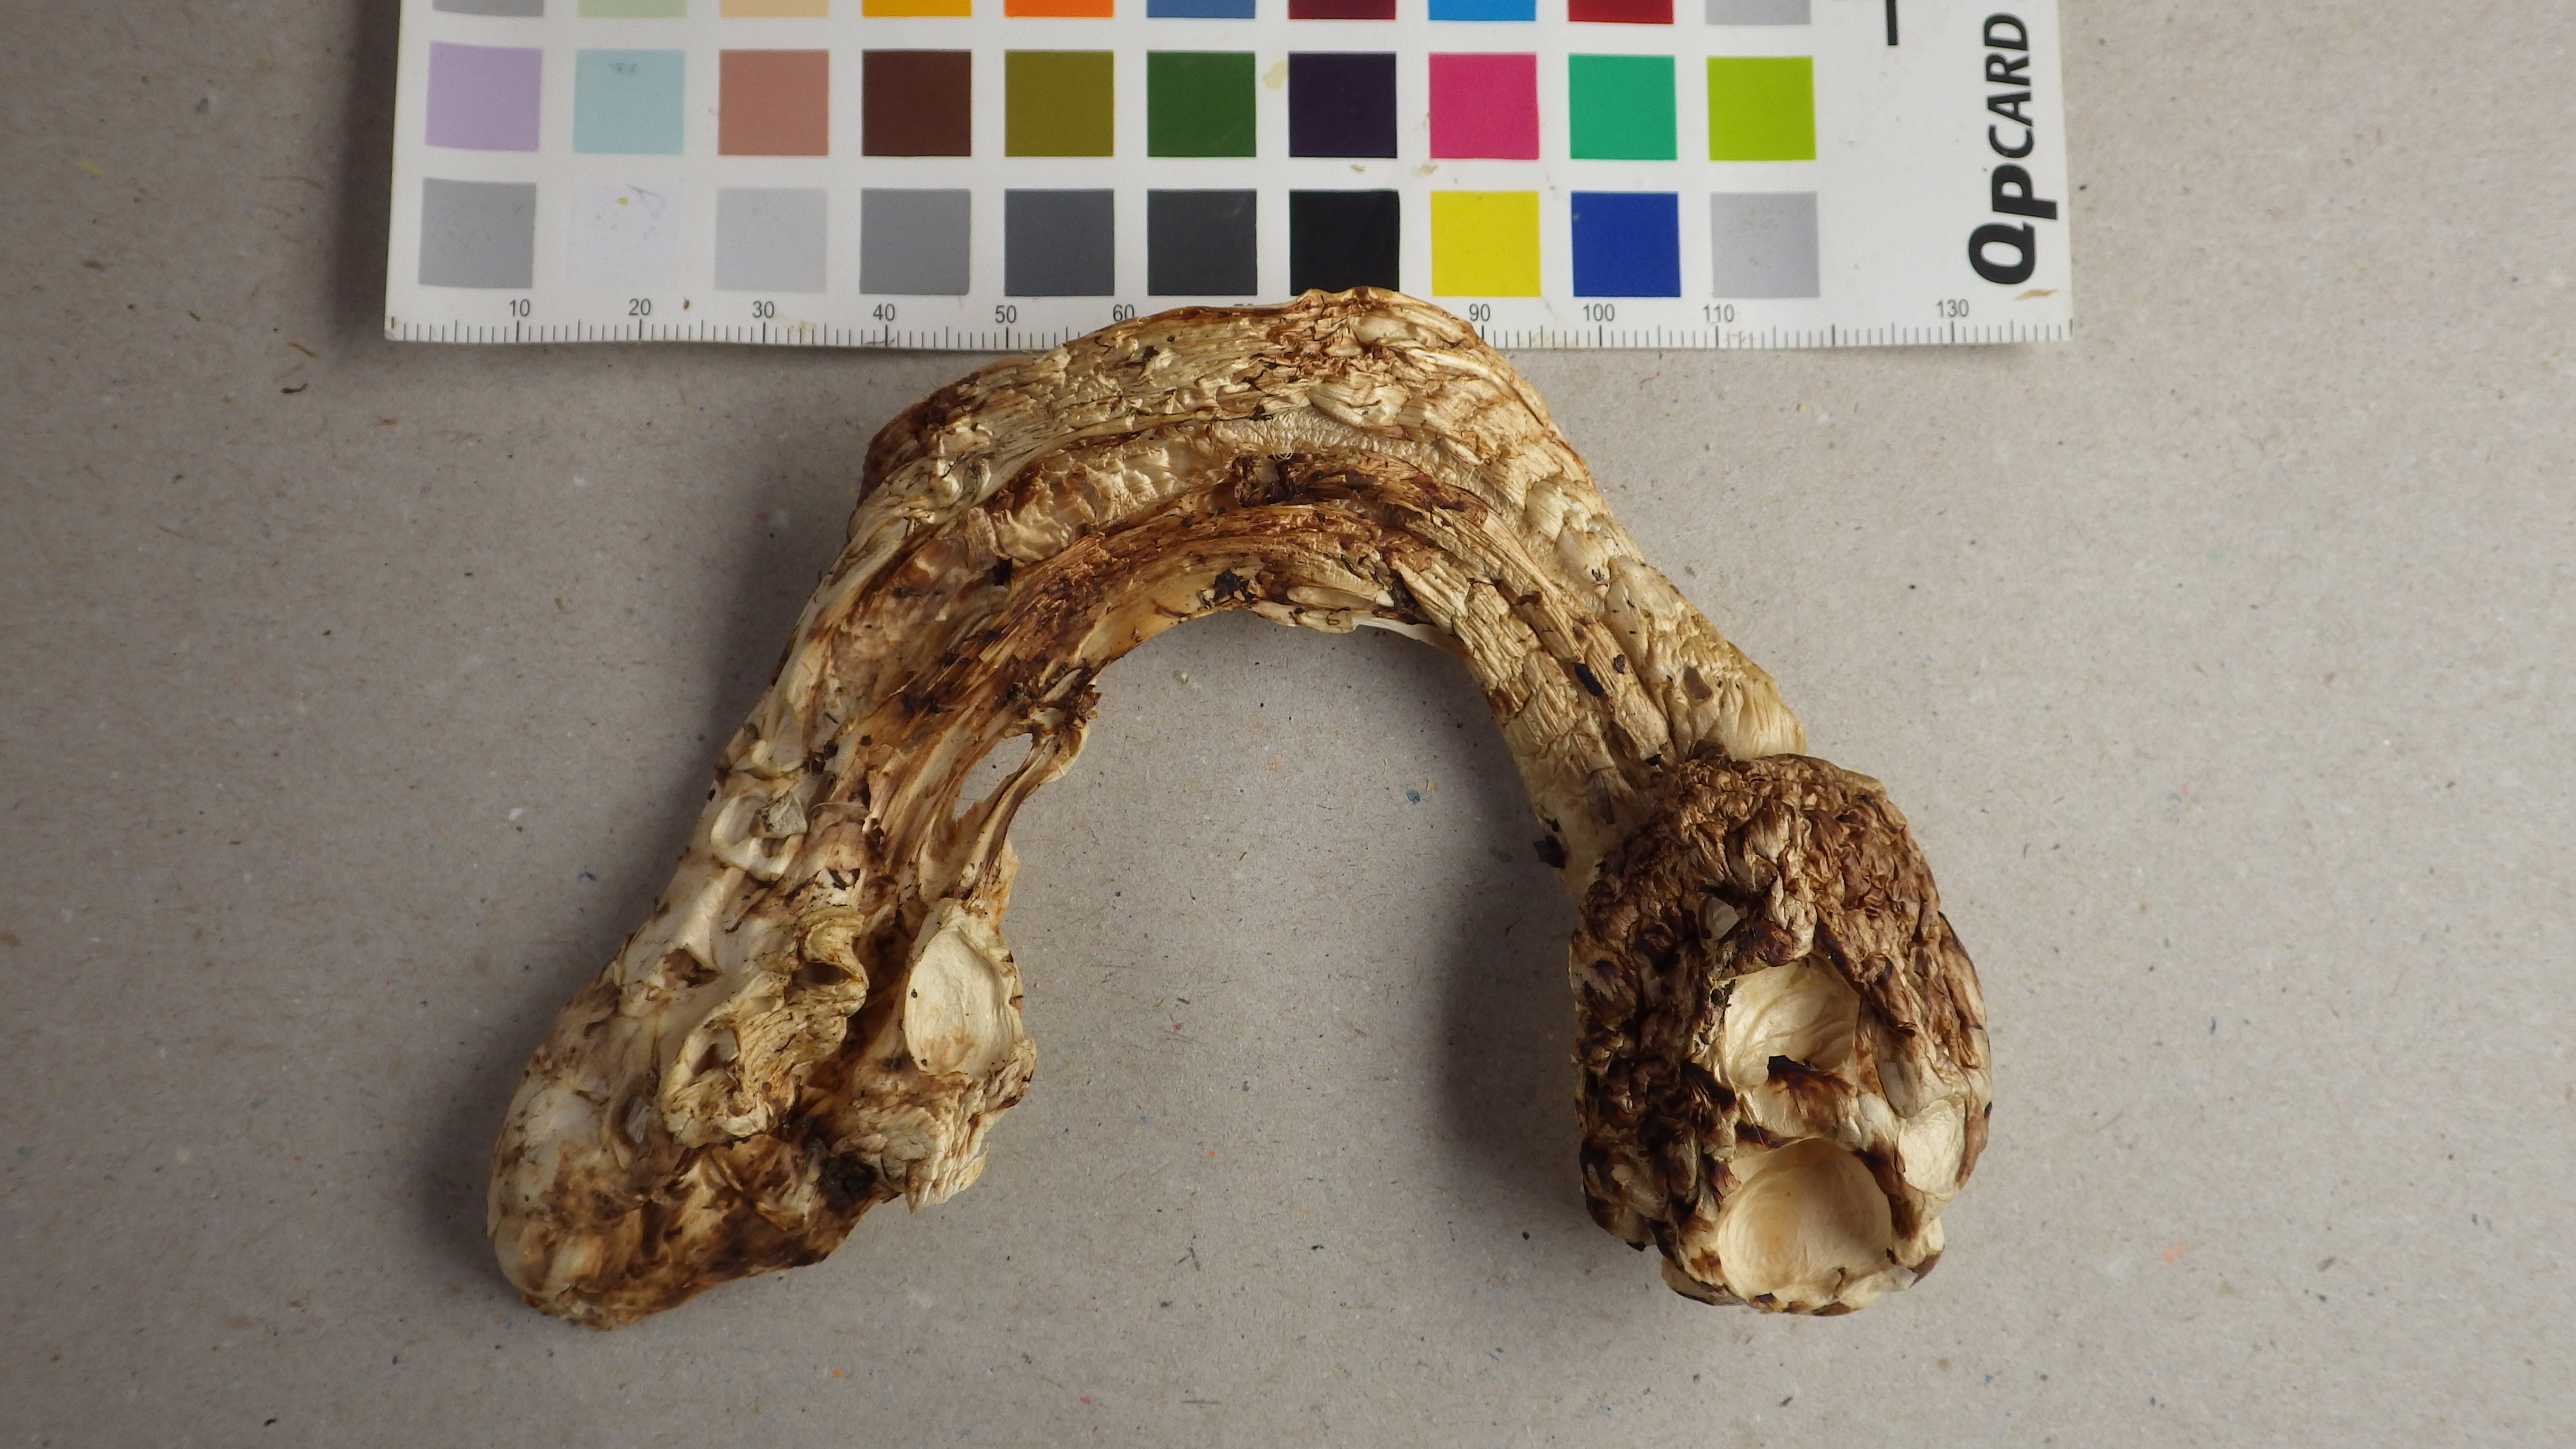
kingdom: Fungi
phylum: Basidiomycota
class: Agaricomycetes
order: Agaricales
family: Tricholomataceae
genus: Tricholoma
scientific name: Tricholoma matsutake
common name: Matsutake
